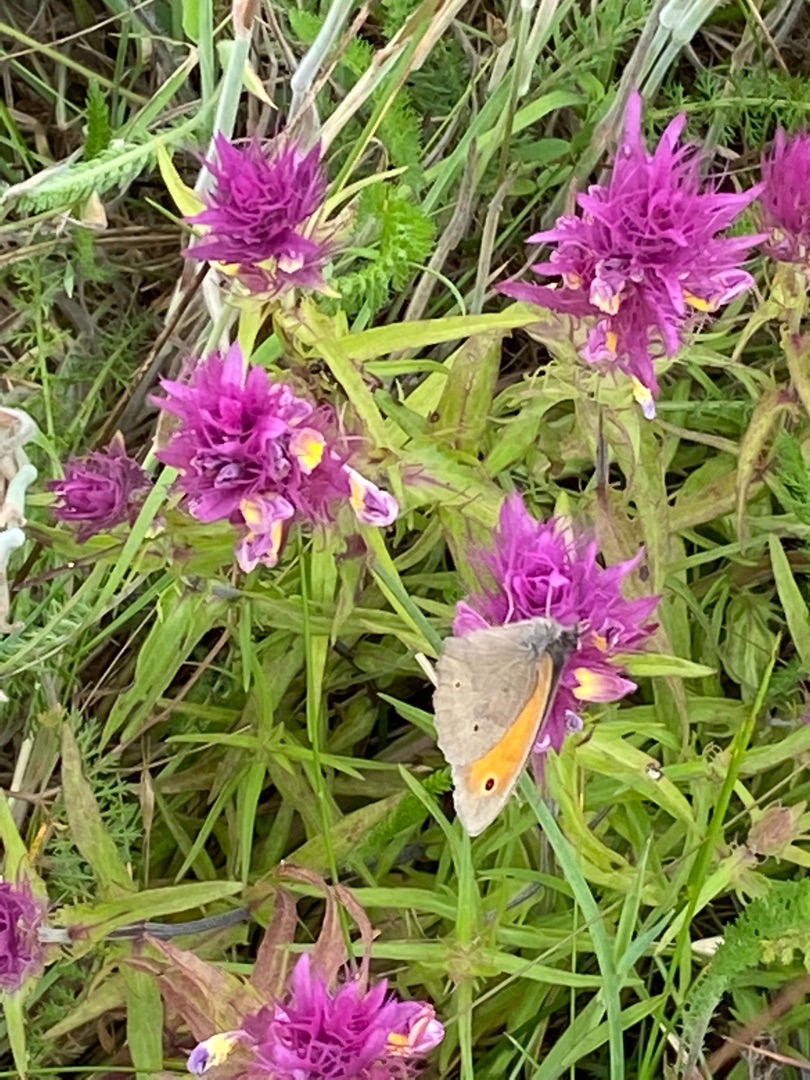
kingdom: Animalia
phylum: Arthropoda
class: Insecta
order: Lepidoptera
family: Nymphalidae
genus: Maniola
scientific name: Maniola jurtina
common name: Græsrandøje
